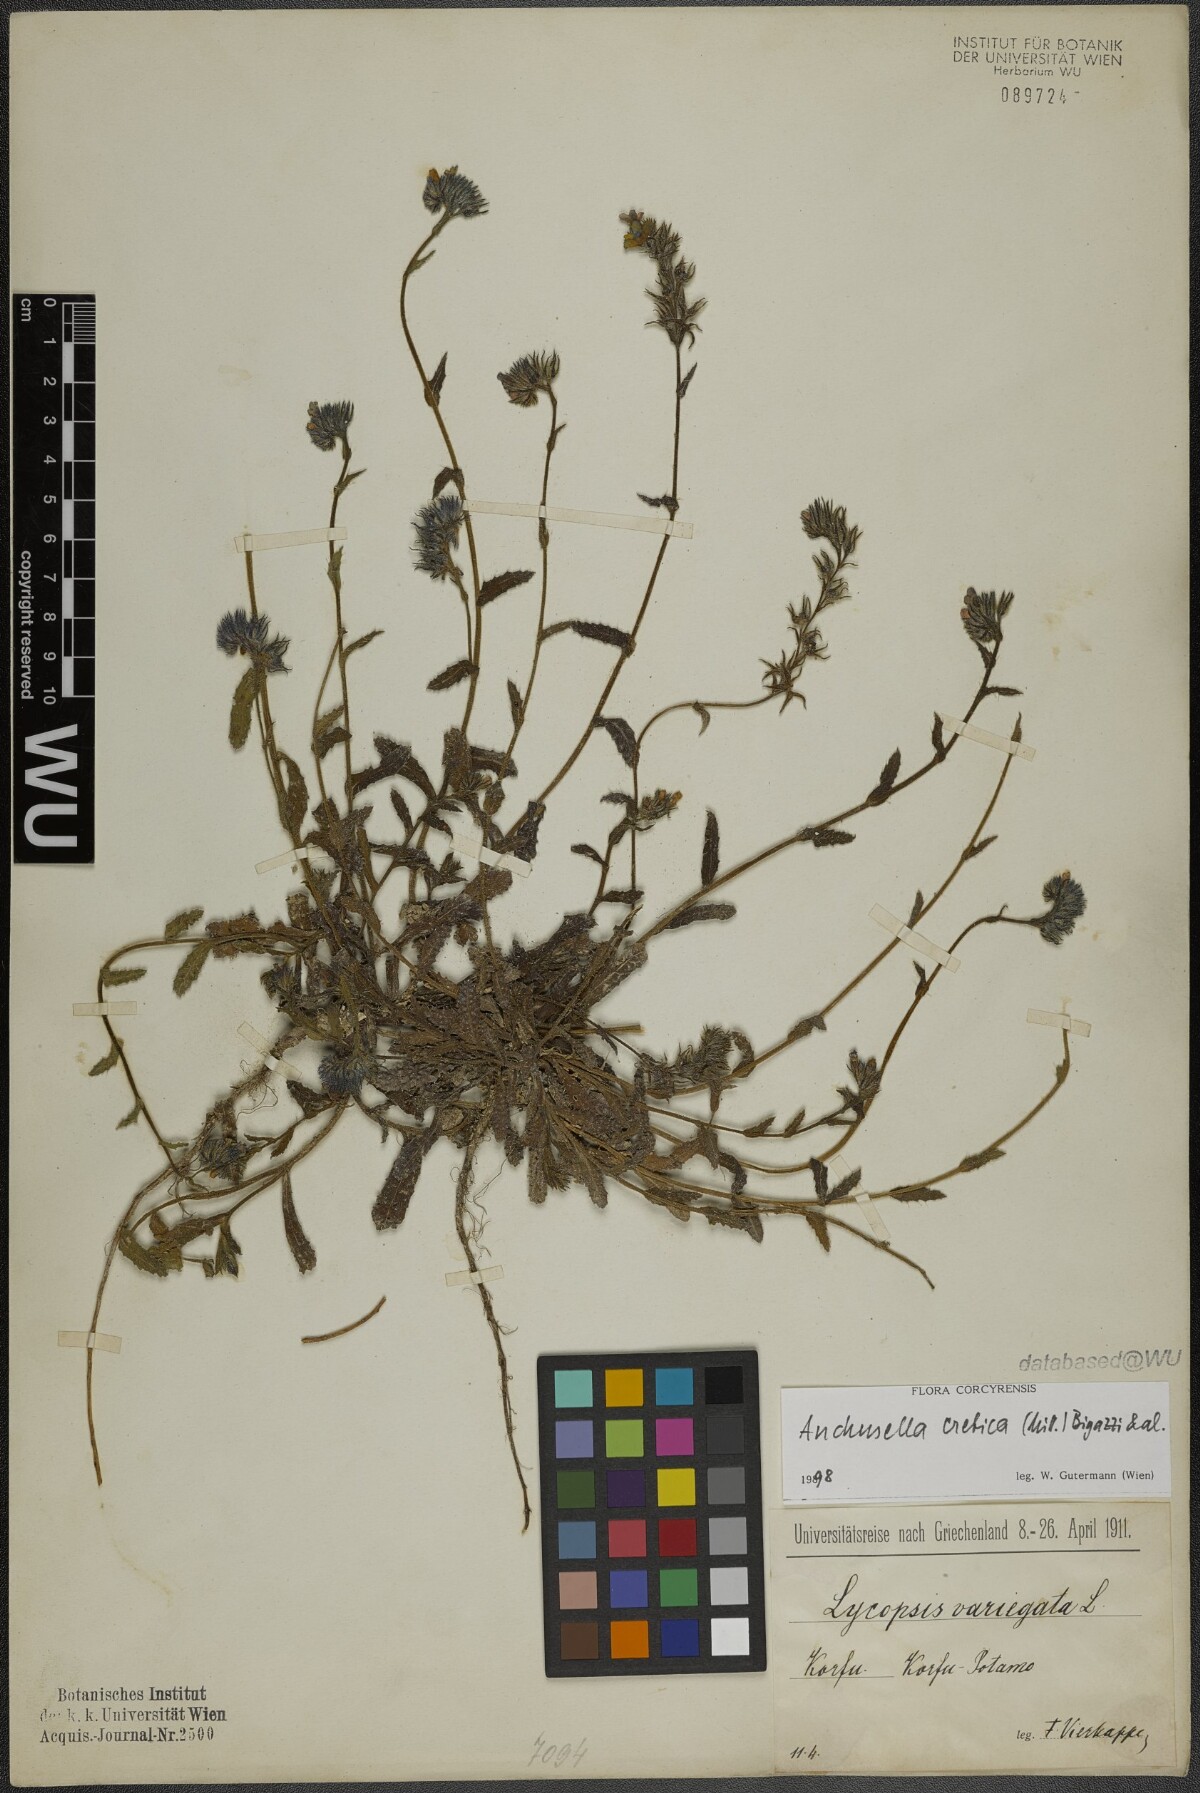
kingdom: Plantae
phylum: Tracheophyta
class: Magnoliopsida
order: Boraginales
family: Boraginaceae
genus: Anchusella
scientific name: Anchusella cretica
